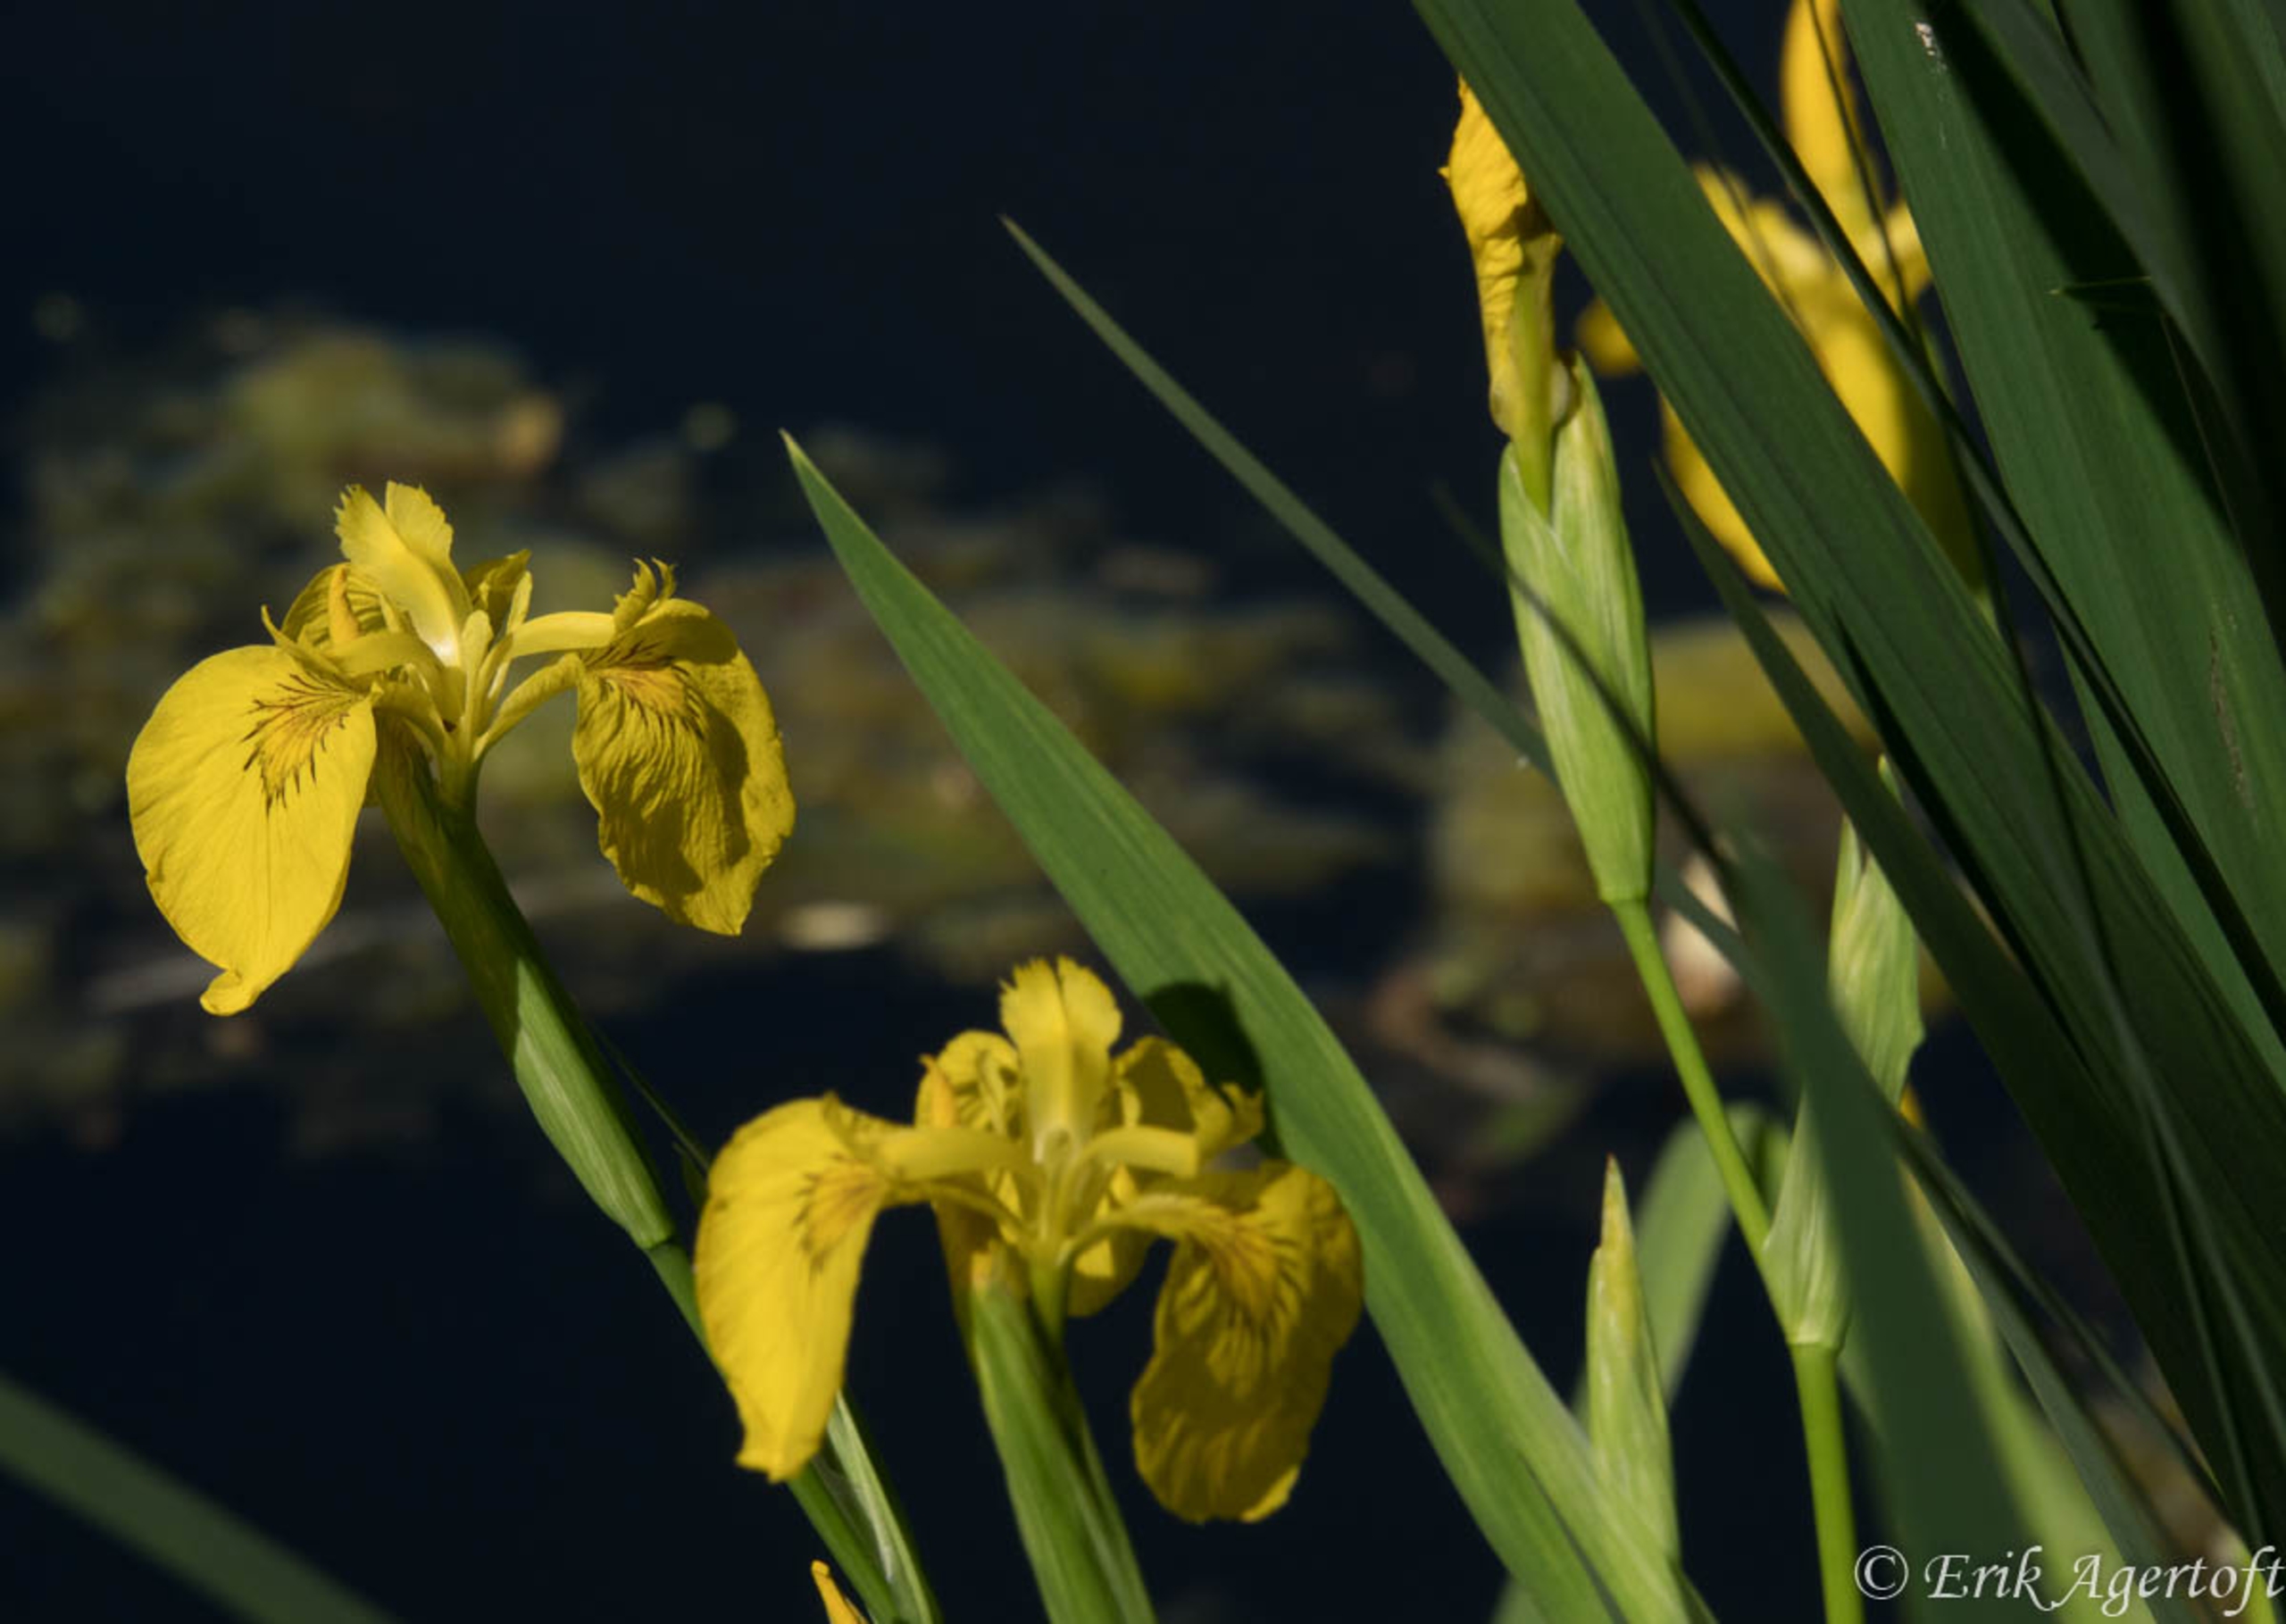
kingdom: Plantae
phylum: Tracheophyta
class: Liliopsida
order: Asparagales
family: Iridaceae
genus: Iris
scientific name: Iris pseudacorus
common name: Gul iris
